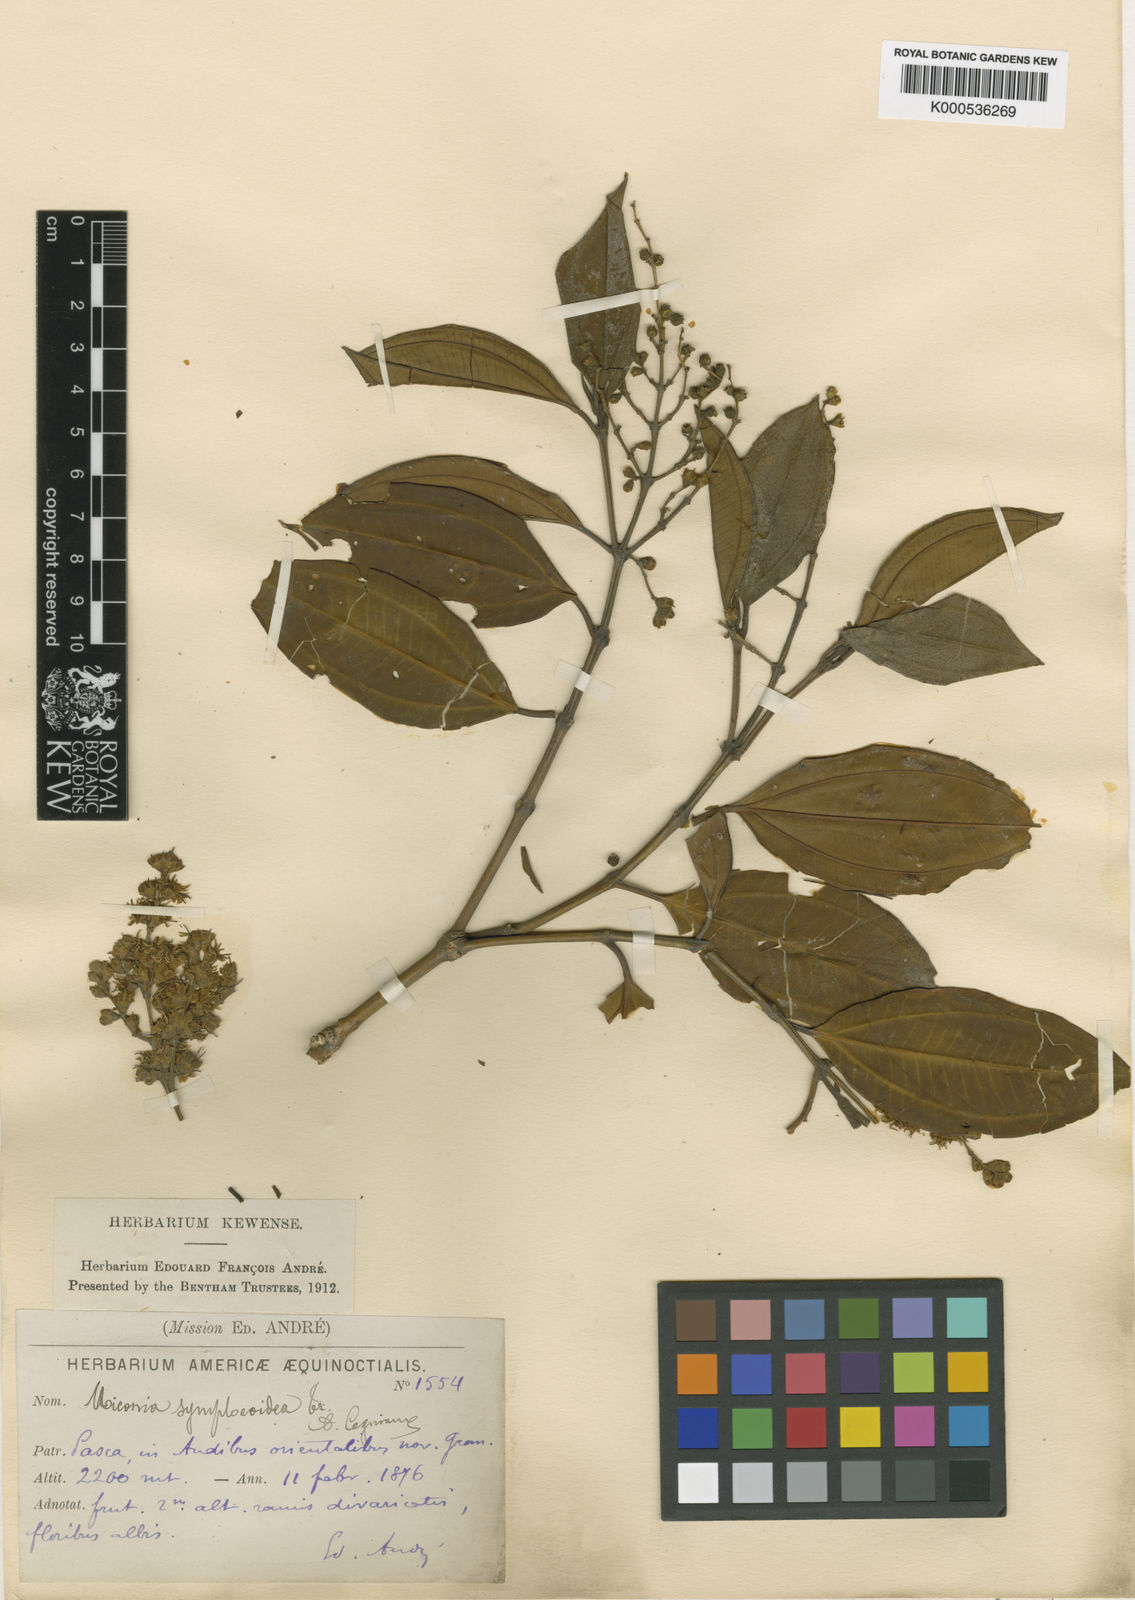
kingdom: Plantae
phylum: Tracheophyta
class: Magnoliopsida
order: Myrtales
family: Melastomataceae
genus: Miconia
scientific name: Miconia symplocoidea
